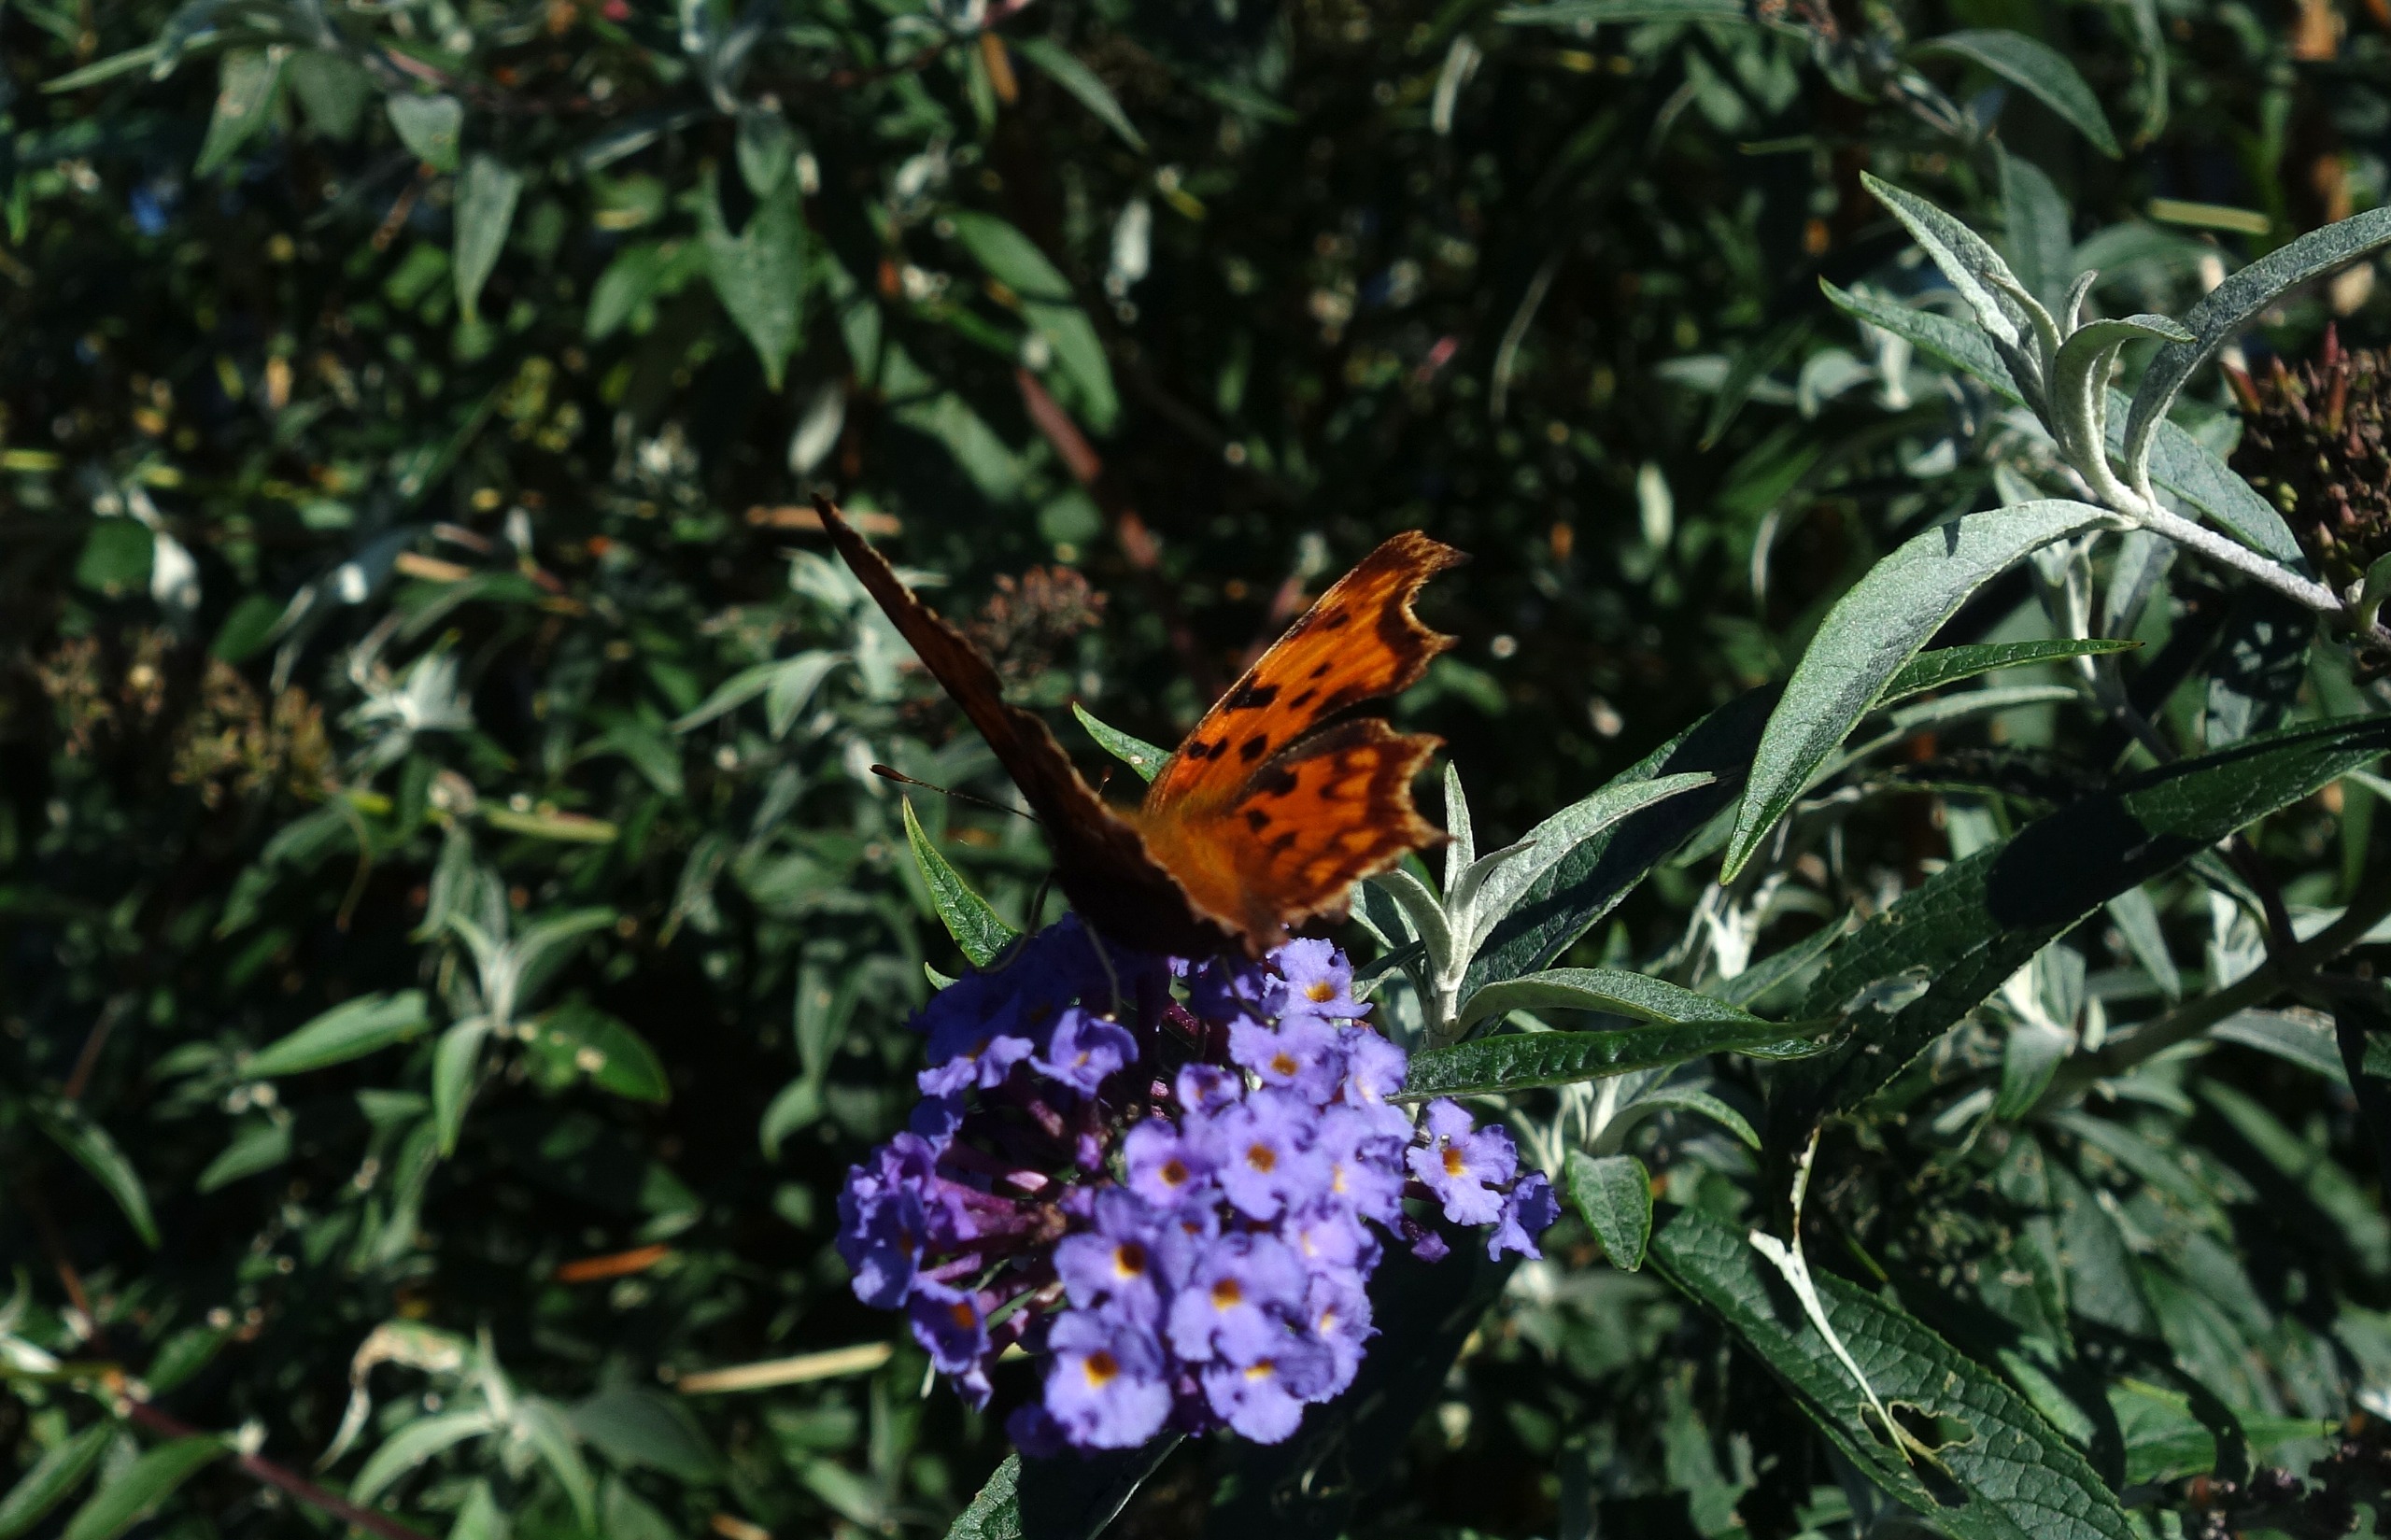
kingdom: Animalia
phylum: Arthropoda
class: Insecta
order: Lepidoptera
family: Nymphalidae
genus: Polygonia
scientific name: Polygonia c-album
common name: Det hvide C
